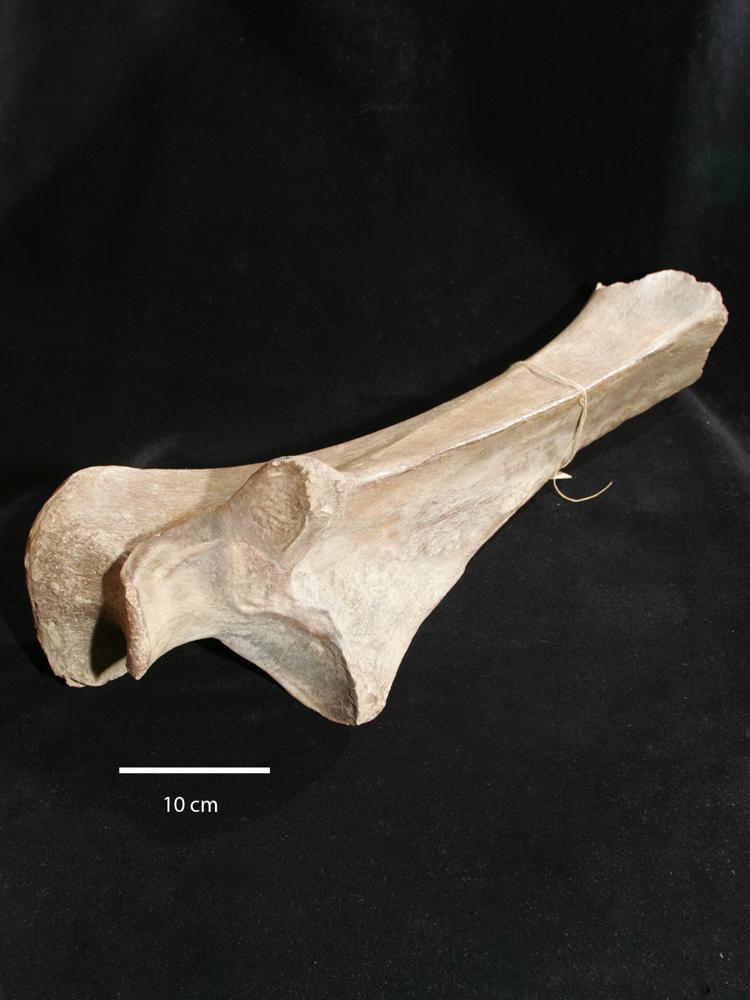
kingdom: Animalia
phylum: Chordata
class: Mammalia
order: Proboscidea
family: Elephantidae
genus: Mammuthus
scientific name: Mammuthus primigenius
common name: Wooly mammoth
